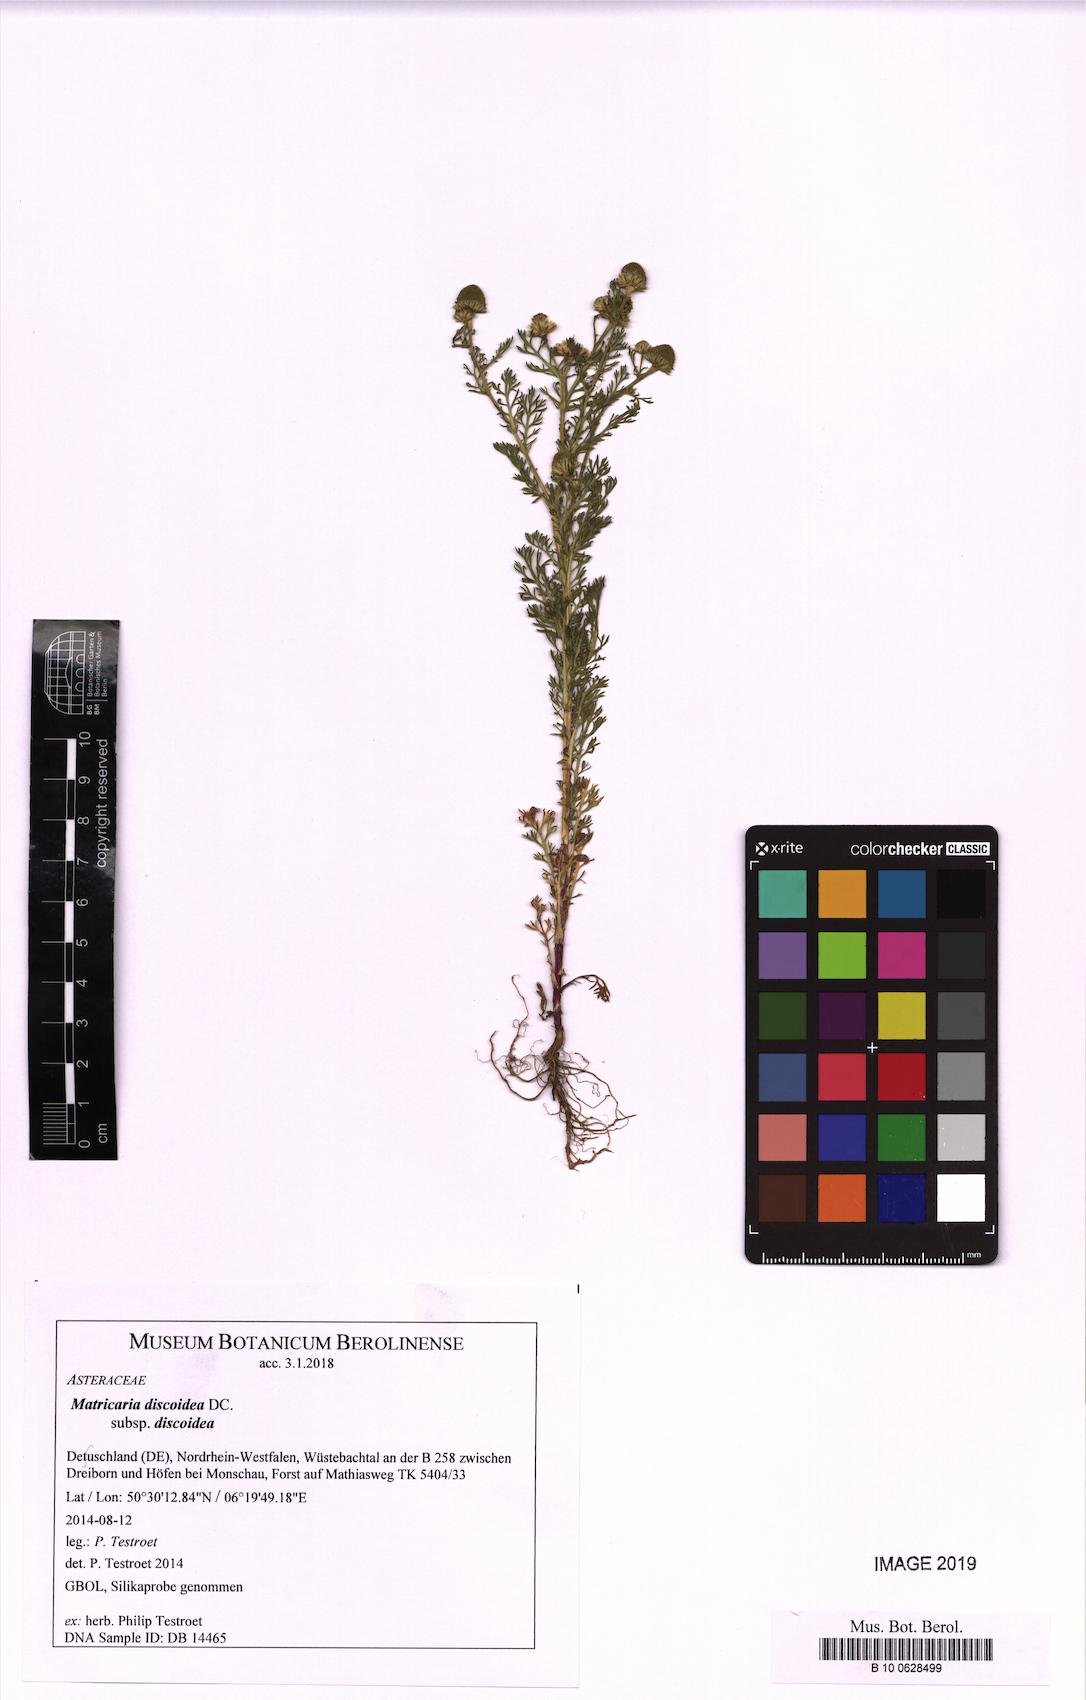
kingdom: Plantae
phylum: Tracheophyta
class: Magnoliopsida
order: Asterales
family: Asteraceae
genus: Matricaria
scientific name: Matricaria discoidea
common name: Disc mayweed
